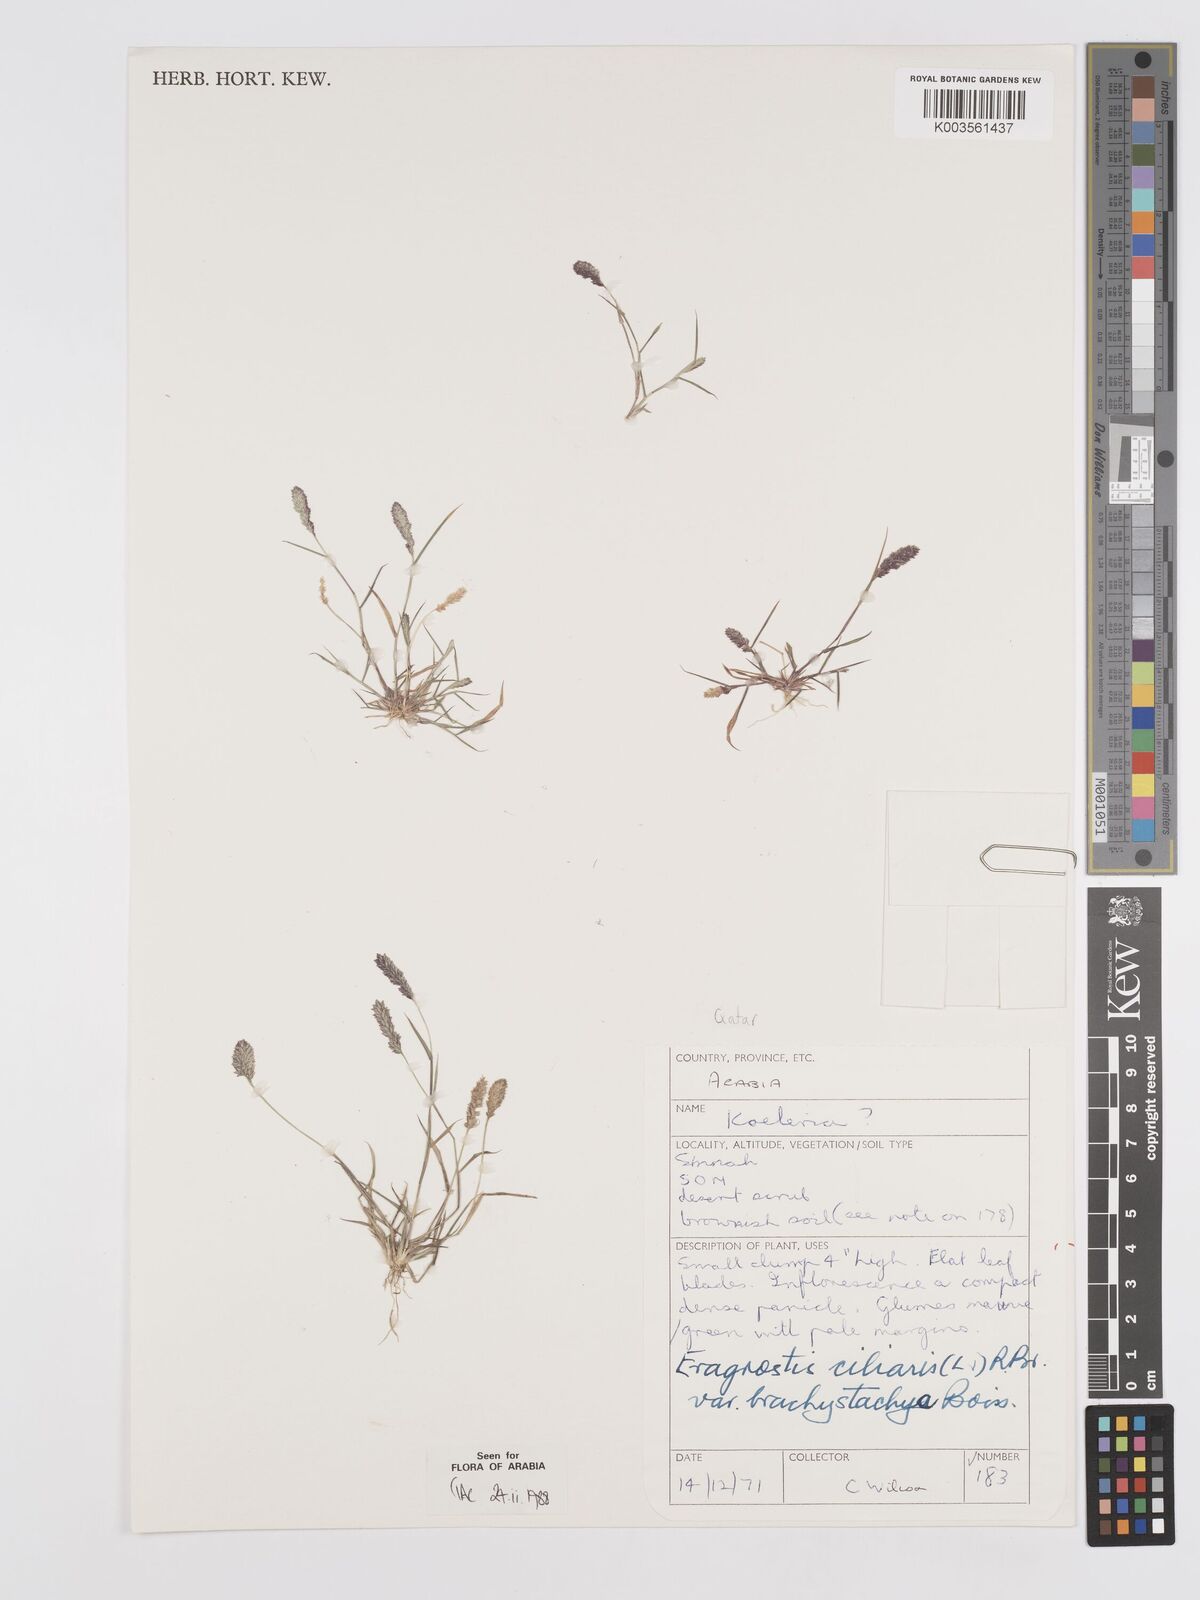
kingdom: Plantae
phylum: Tracheophyta
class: Liliopsida
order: Poales
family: Poaceae
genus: Eragrostis
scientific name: Eragrostis ciliaris
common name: Gophertail lovegrass
